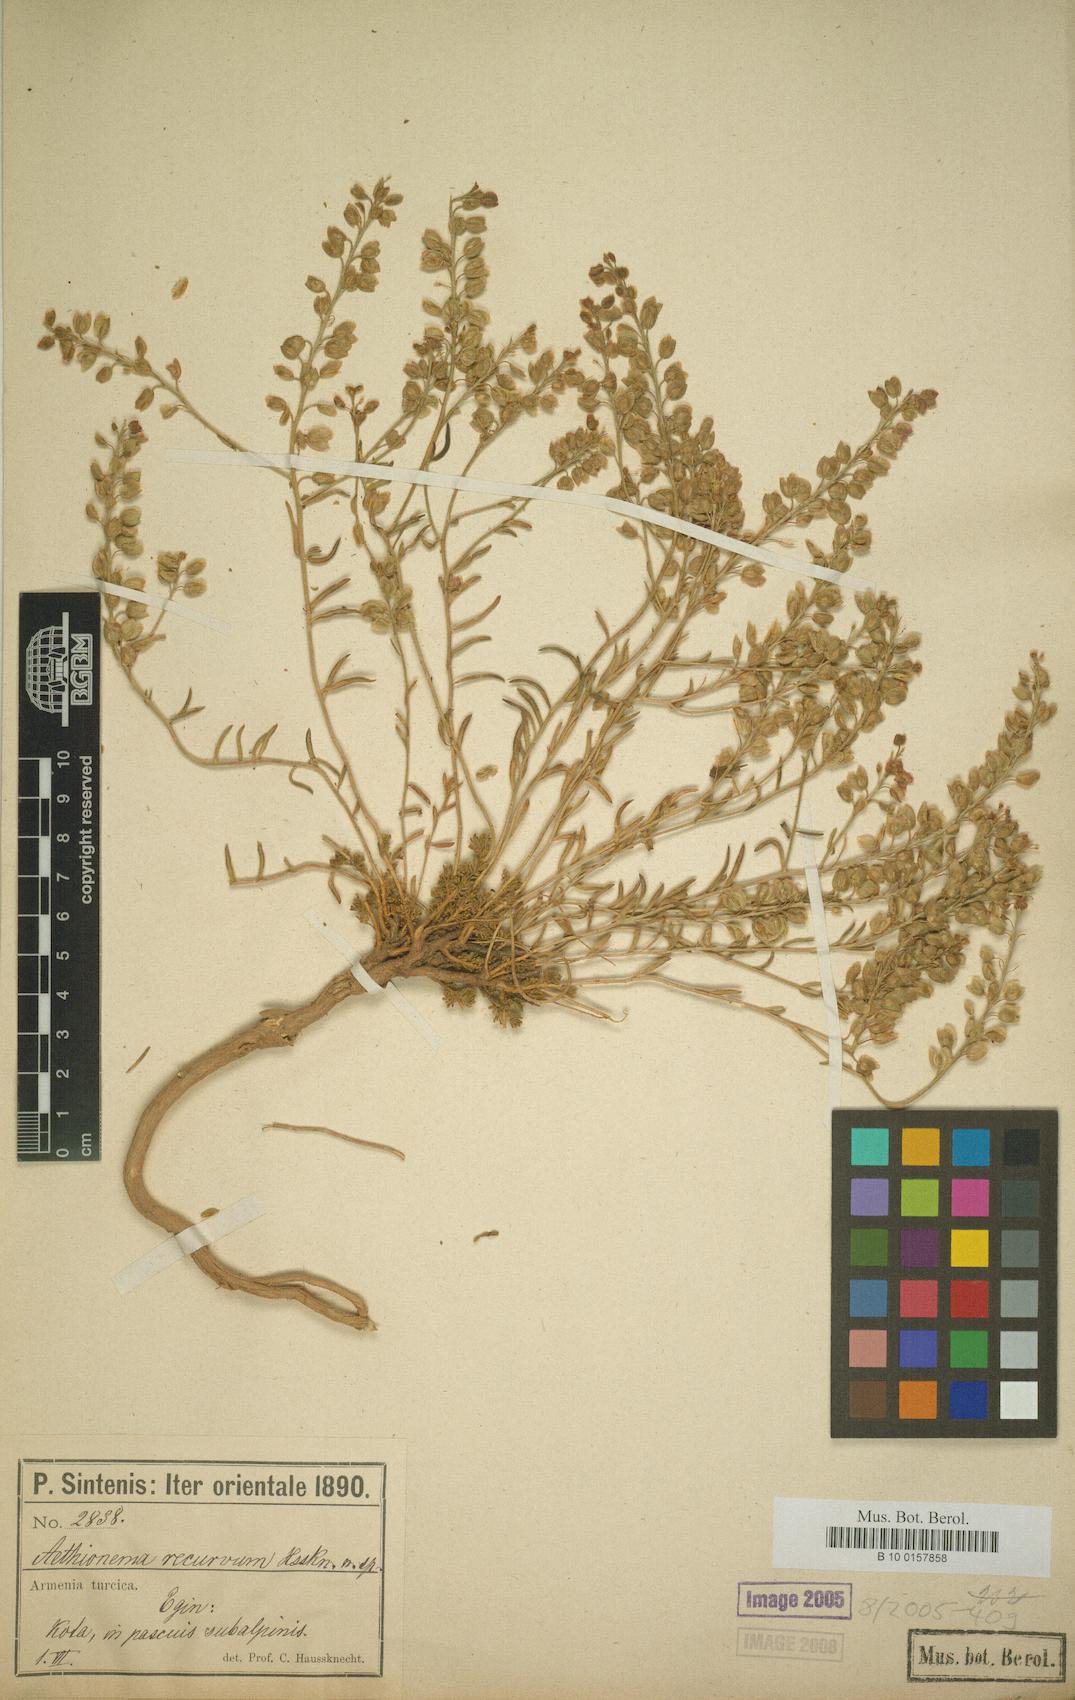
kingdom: Plantae
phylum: Tracheophyta
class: Magnoliopsida
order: Brassicales
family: Brassicaceae
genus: Aethionema
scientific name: Aethionema diastrophis
